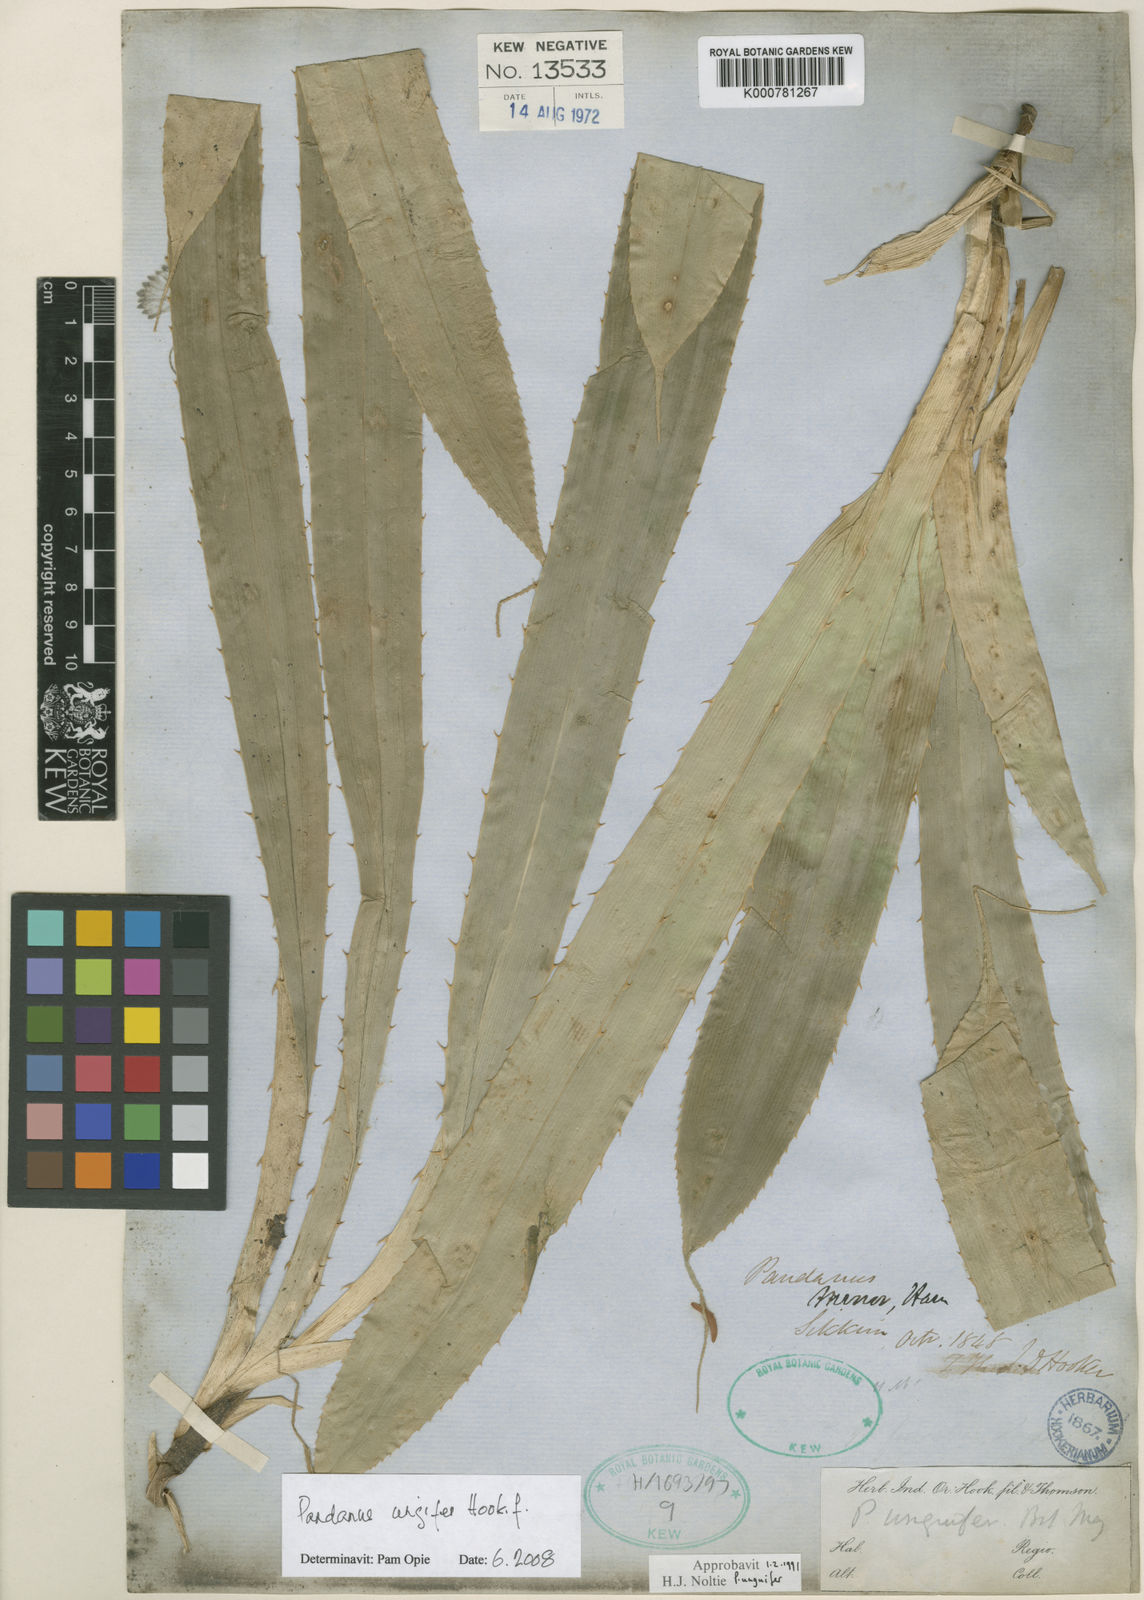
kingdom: Plantae
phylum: Tracheophyta
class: Liliopsida
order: Pandanales
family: Pandanaceae
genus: Pandanus
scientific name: Pandanus unguifer
